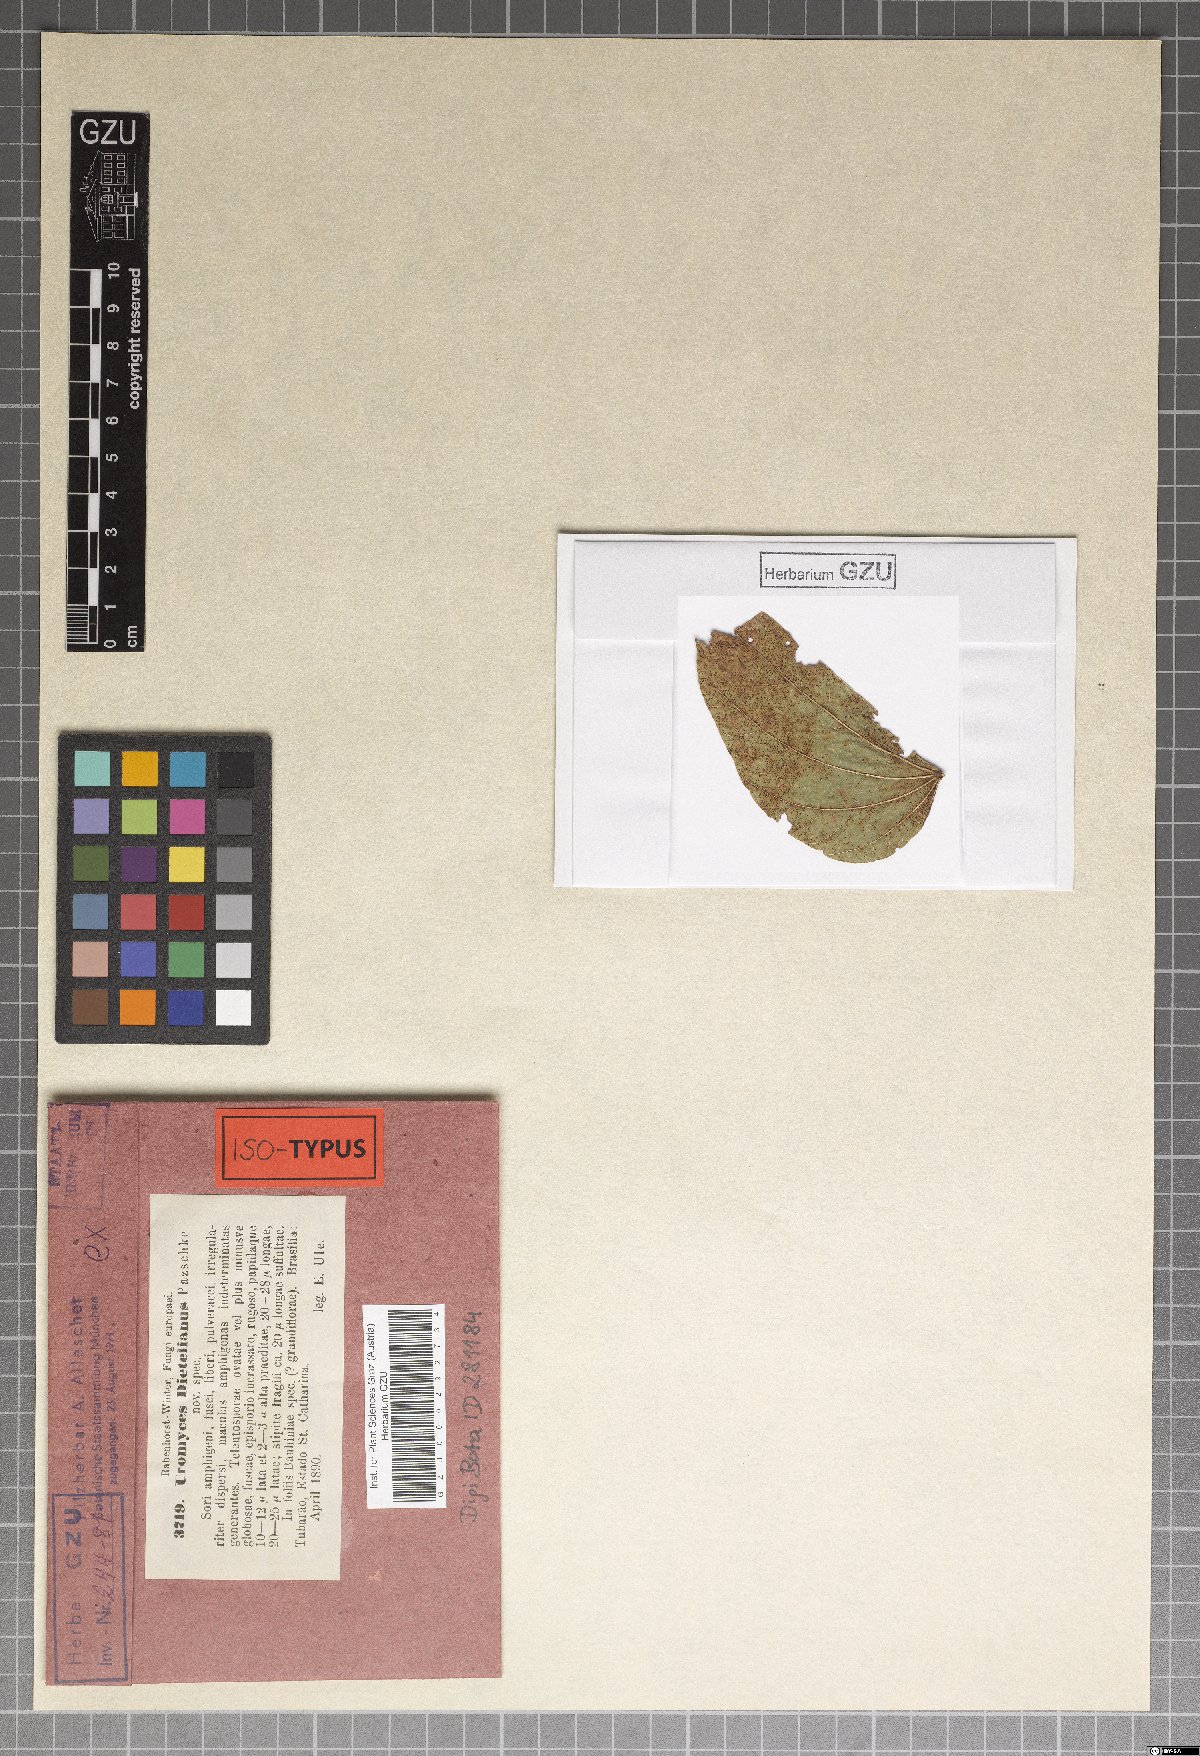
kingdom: Fungi
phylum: Basidiomycota
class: Pucciniomycetes
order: Pucciniales
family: Pucciniaceae
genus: Uromyces
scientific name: Uromyces dietelianus
